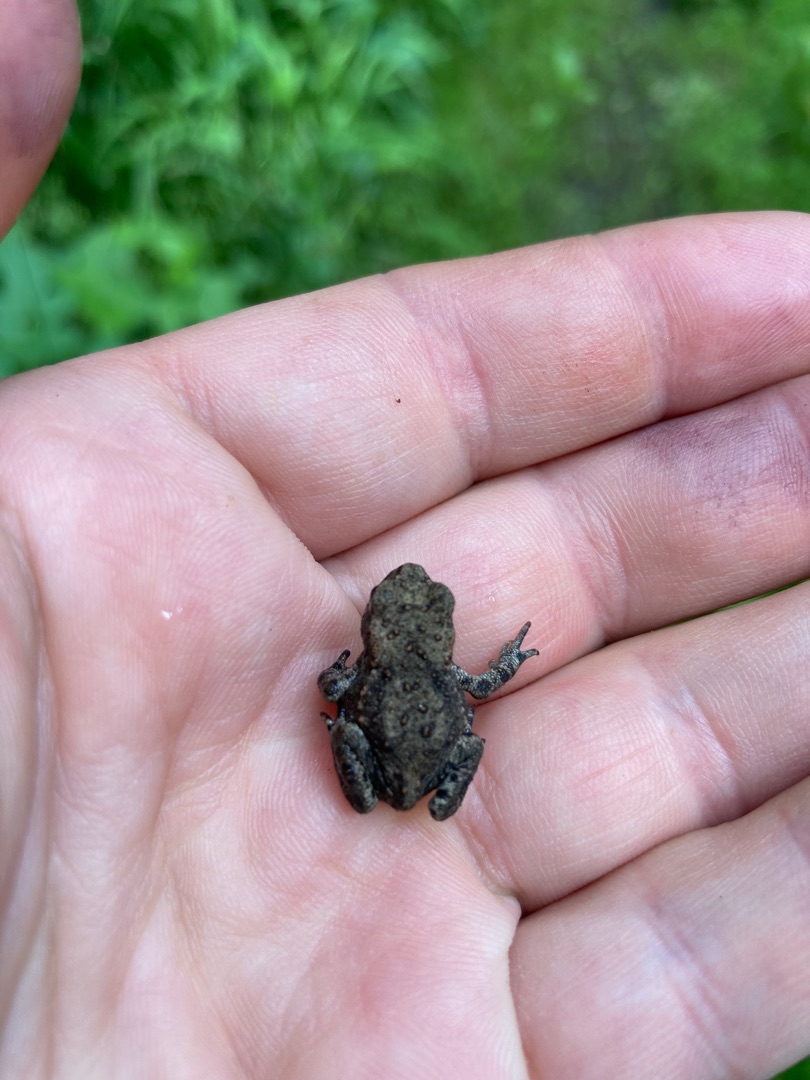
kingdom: Animalia
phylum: Chordata
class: Amphibia
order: Anura
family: Bufonidae
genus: Bufo
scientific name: Bufo bufo
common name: Skrubtudse
